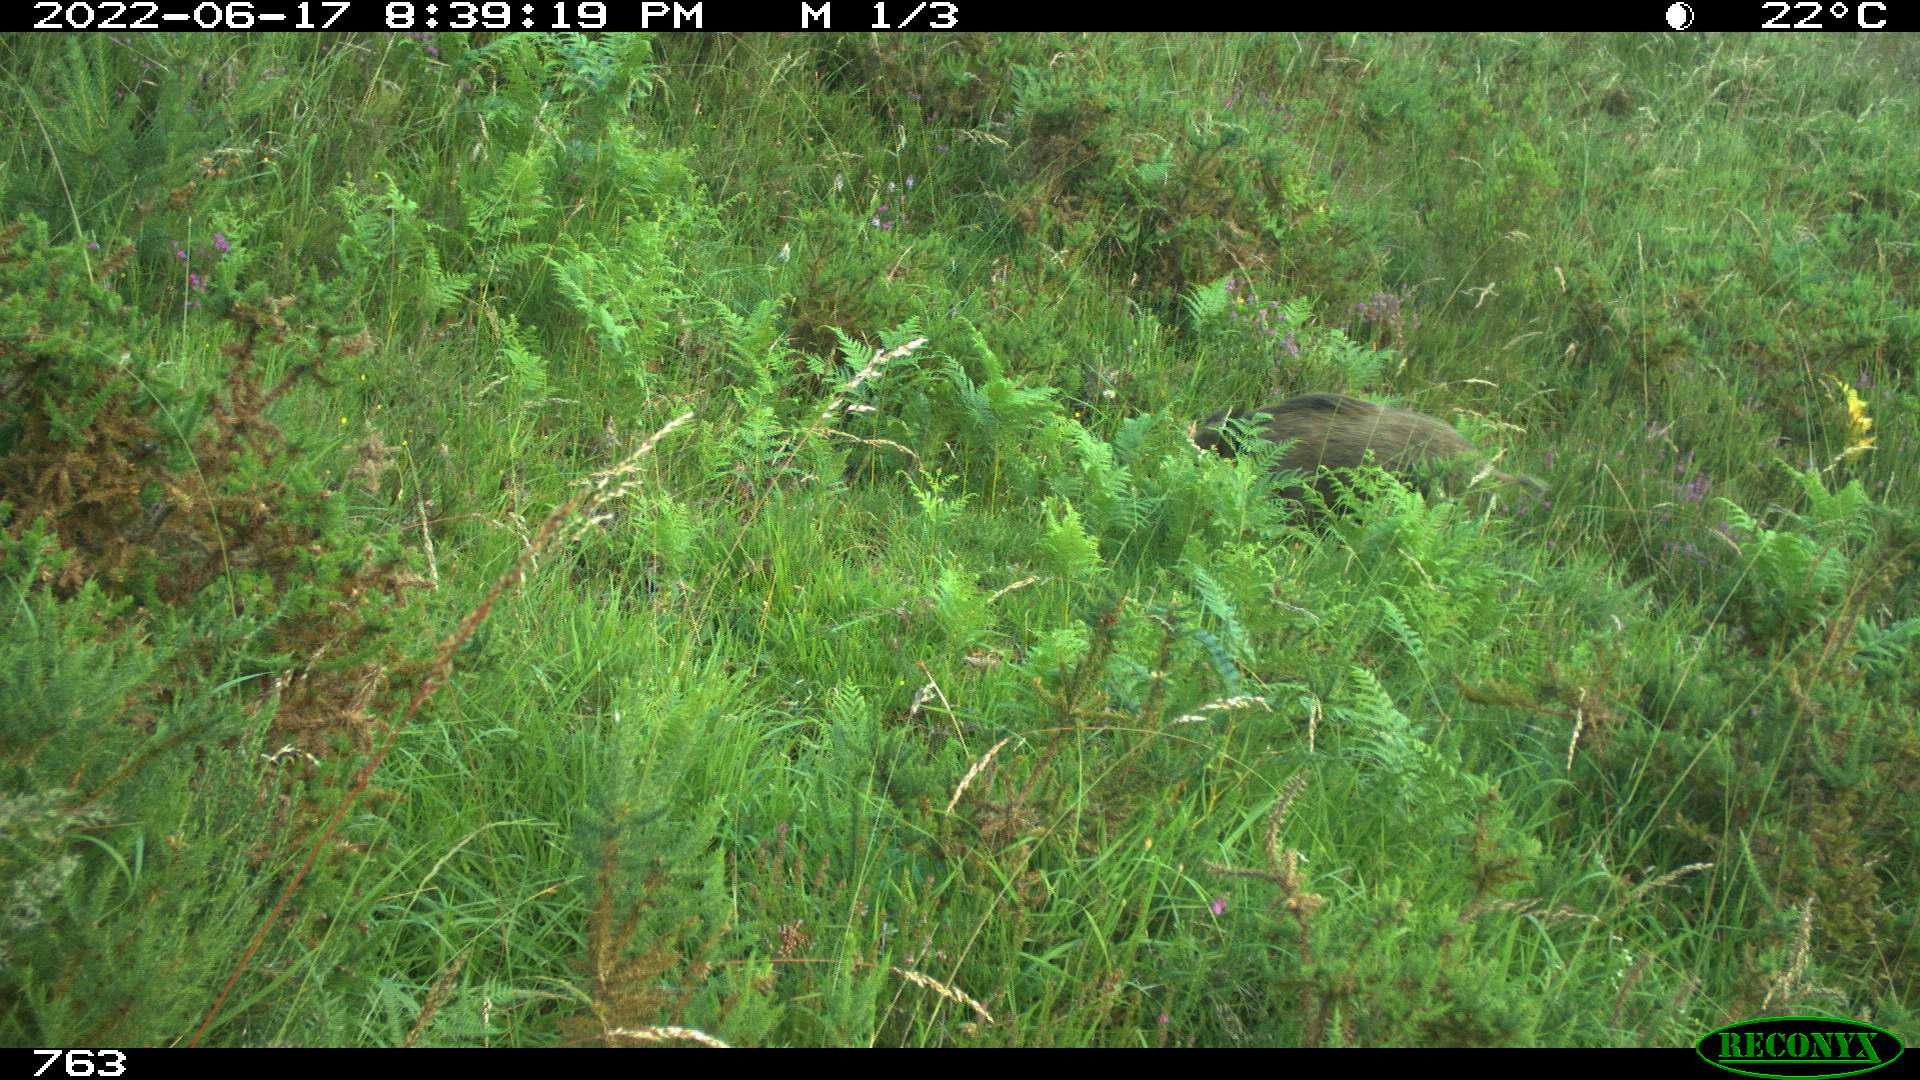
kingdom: Animalia
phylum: Chordata
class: Mammalia
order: Artiodactyla
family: Suidae
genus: Sus
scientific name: Sus scrofa
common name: Wild boar
